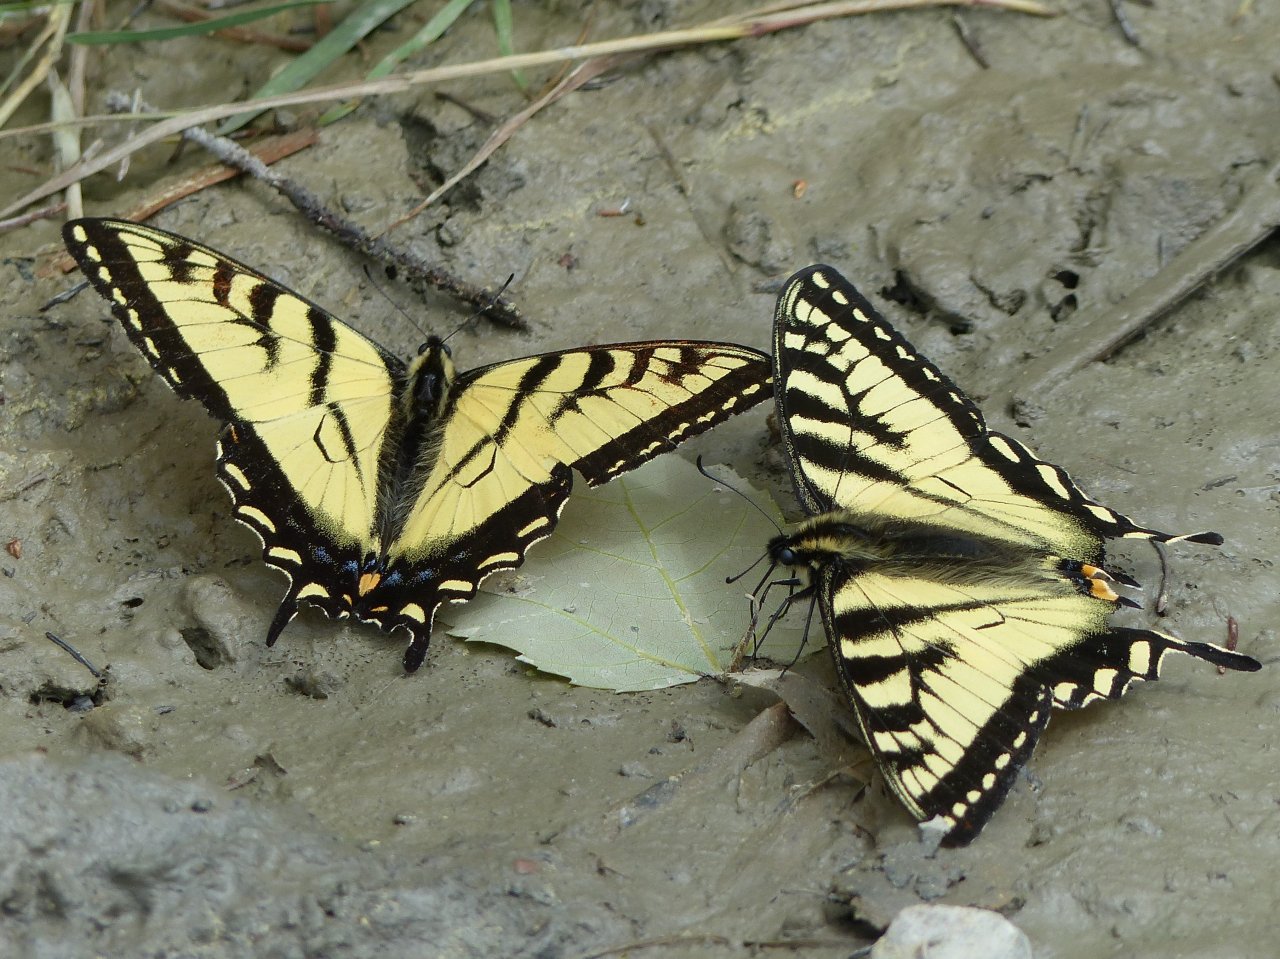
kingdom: Animalia
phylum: Arthropoda
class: Insecta
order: Lepidoptera
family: Papilionidae
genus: Pterourus
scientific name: Pterourus canadensis
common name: Canadian Tiger Swallowtail
